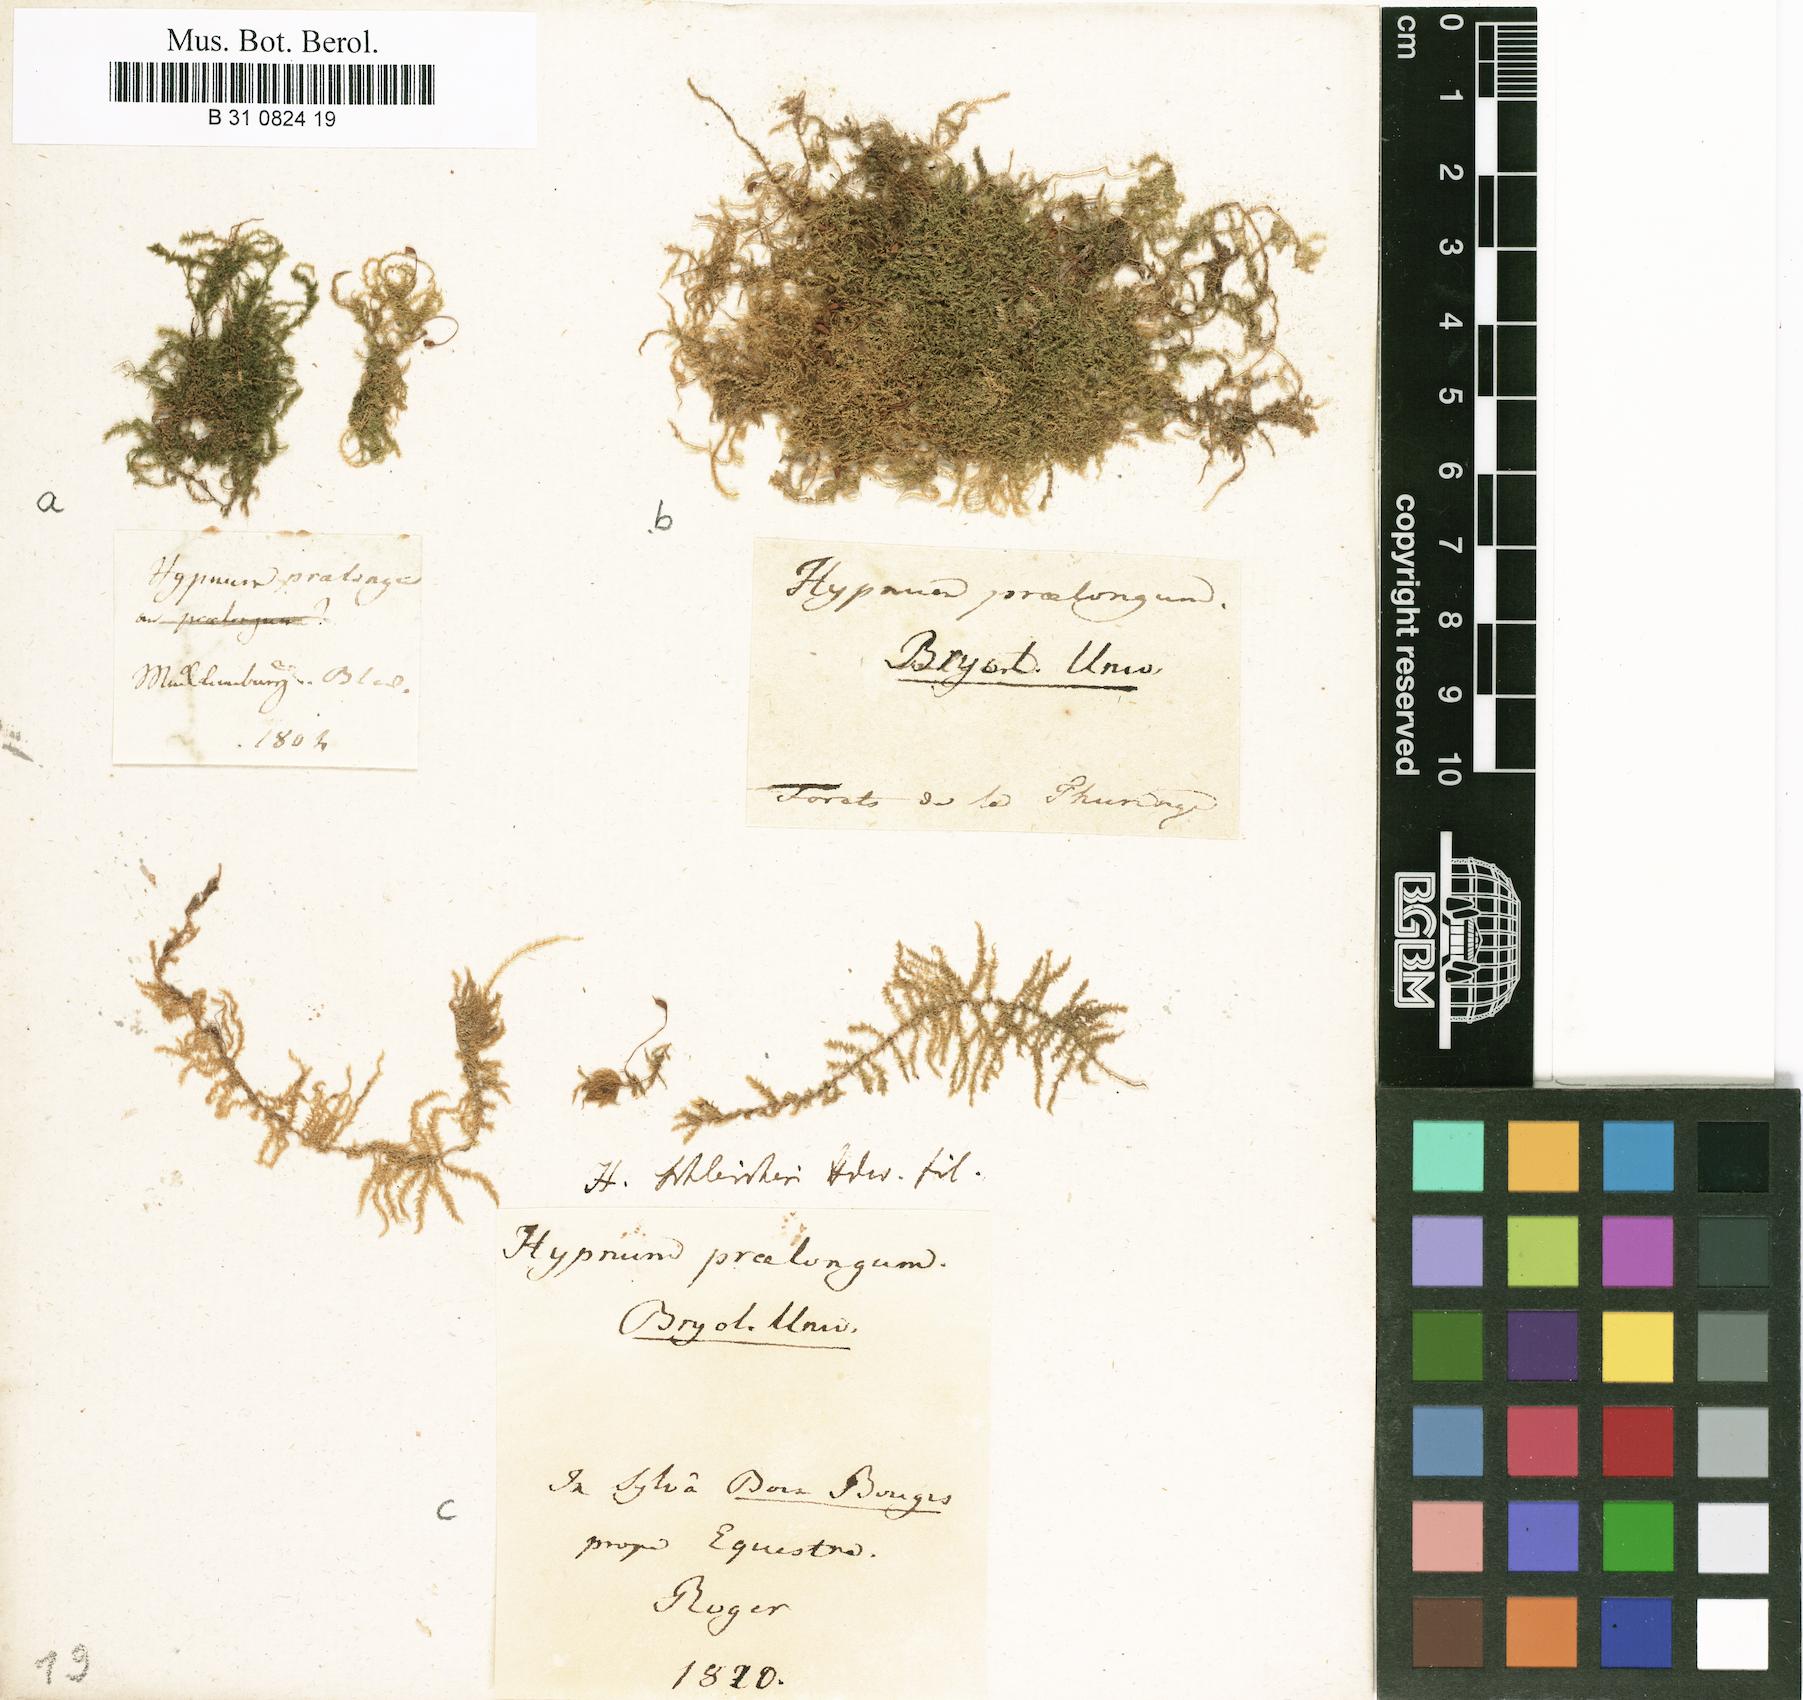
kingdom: Plantae
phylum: Bryophyta
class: Bryopsida
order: Hypnales
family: Brachytheciaceae
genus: Kindbergia
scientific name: Kindbergia praelonga
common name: Slender beaked moss
